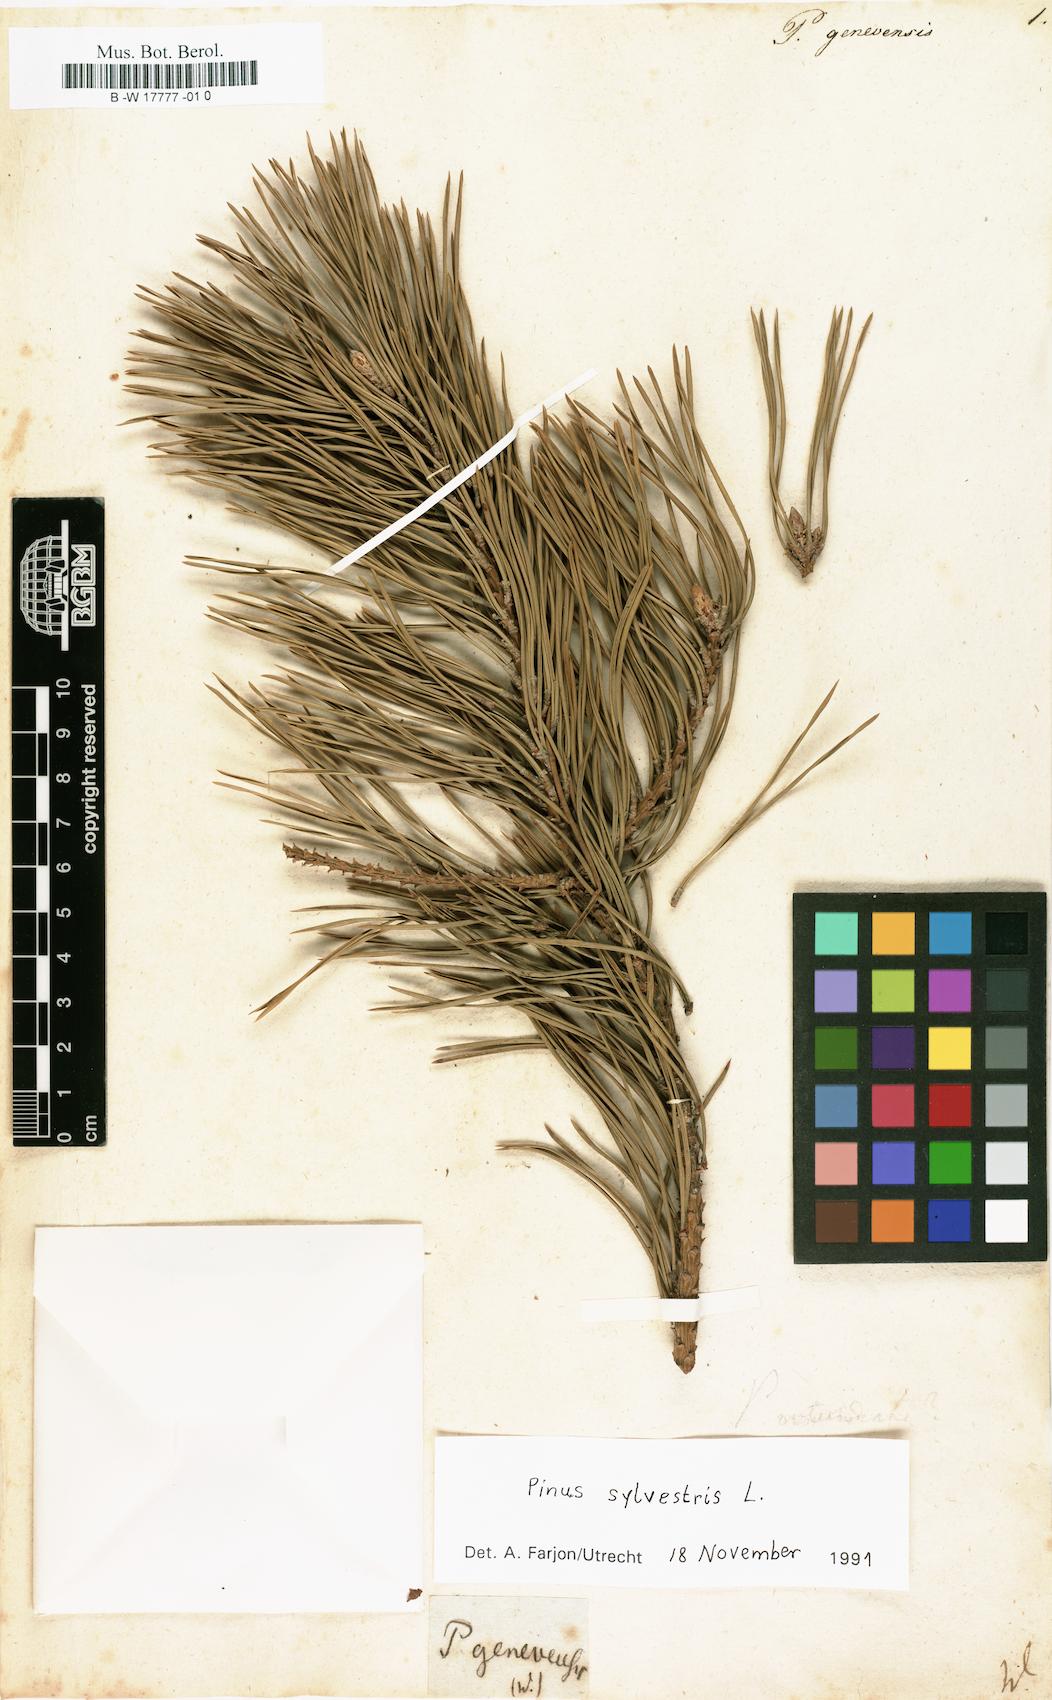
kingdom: Plantae
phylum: Tracheophyta
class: Pinopsida
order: Pinales
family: Pinaceae
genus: Pinus
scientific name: Pinus sylvestris
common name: Scots pine
